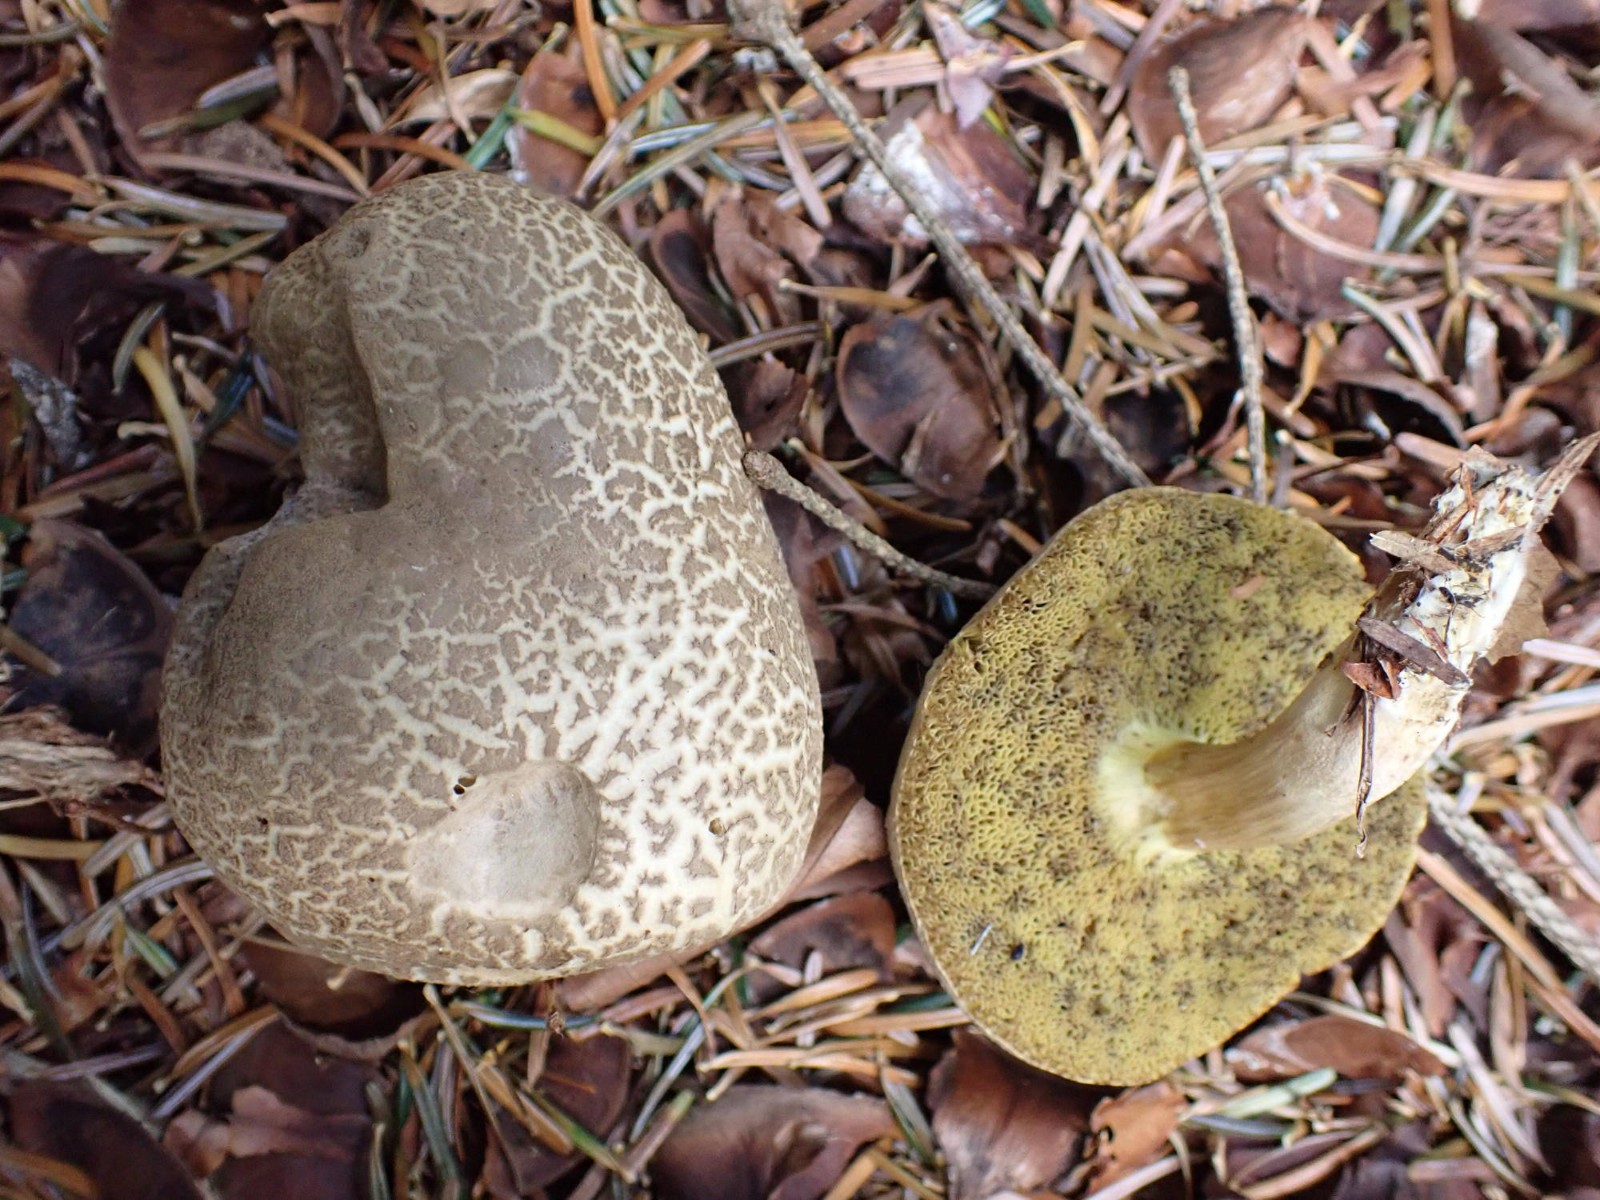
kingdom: Fungi
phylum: Basidiomycota
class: Agaricomycetes
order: Boletales
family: Boletaceae
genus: Xerocomellus
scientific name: Xerocomellus porosporus
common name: hvidsprukken rørhat
